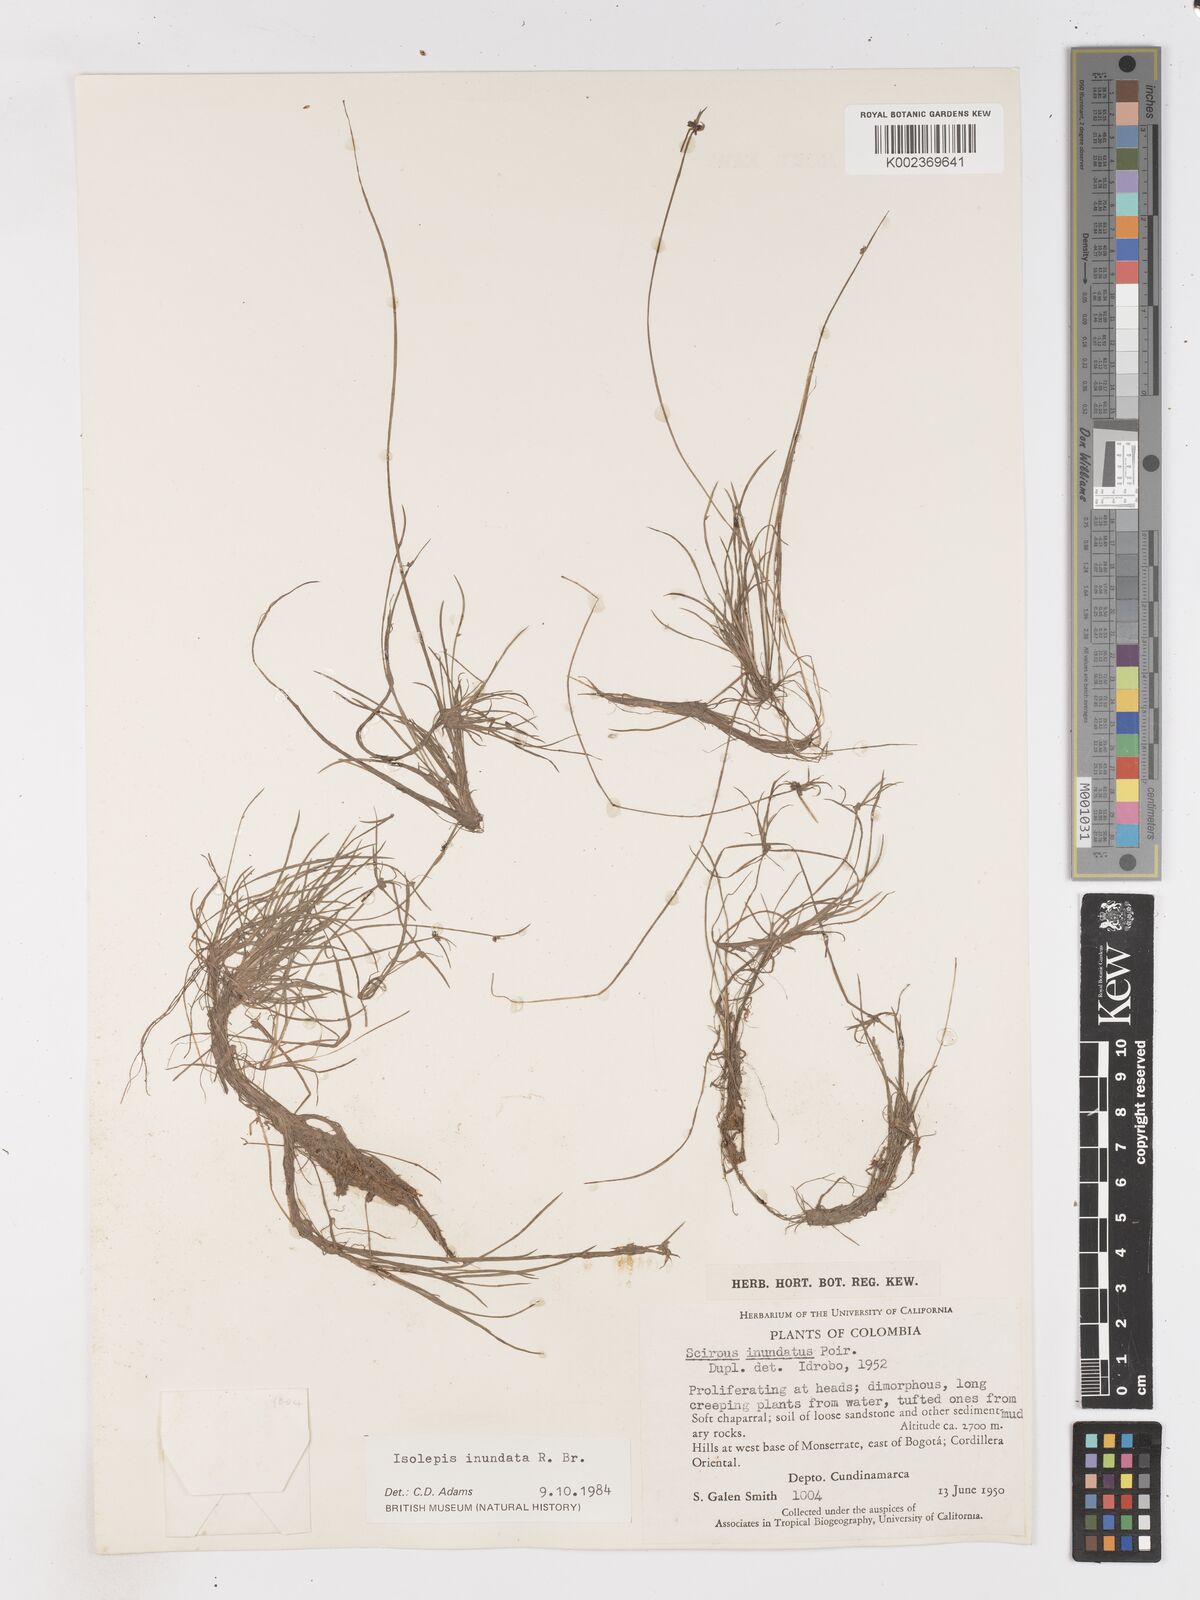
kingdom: Plantae
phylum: Tracheophyta
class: Liliopsida
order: Poales
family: Cyperaceae
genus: Isolepis
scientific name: Isolepis inundata
